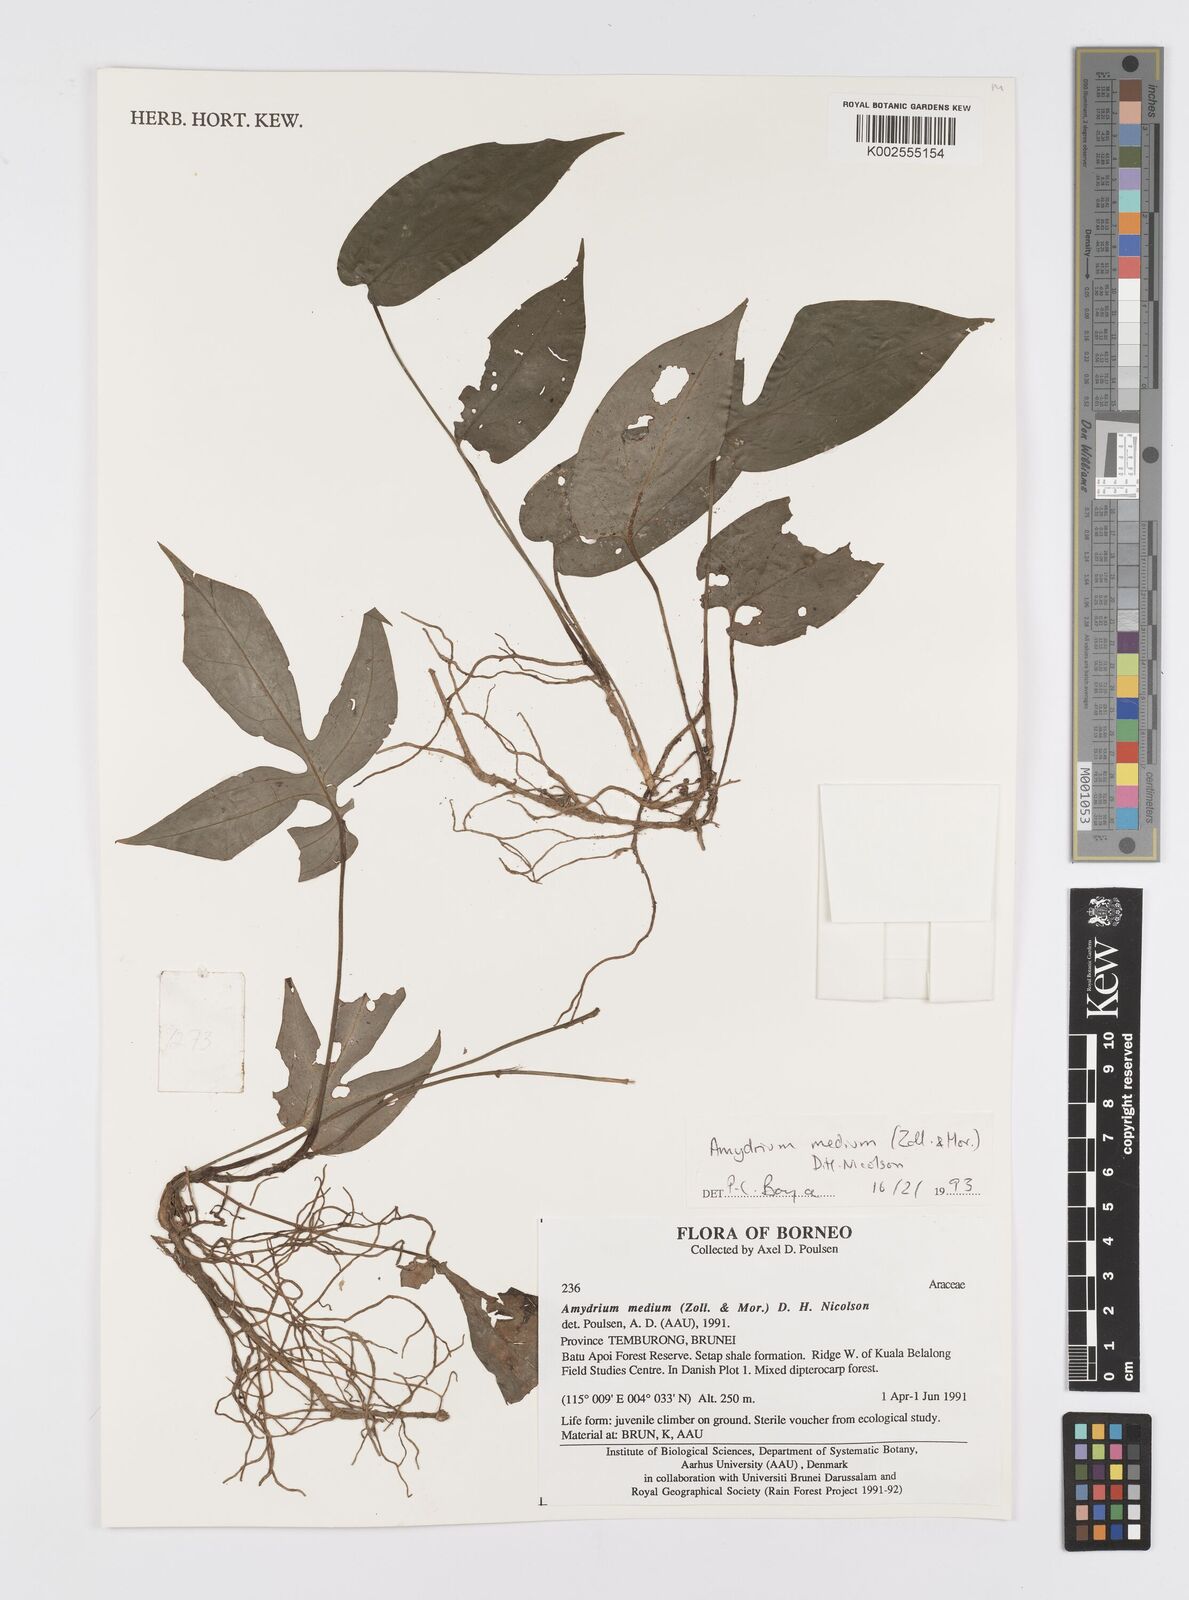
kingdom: Plantae
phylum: Tracheophyta
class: Liliopsida
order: Alismatales
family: Araceae
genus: Amydrium
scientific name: Amydrium medium
